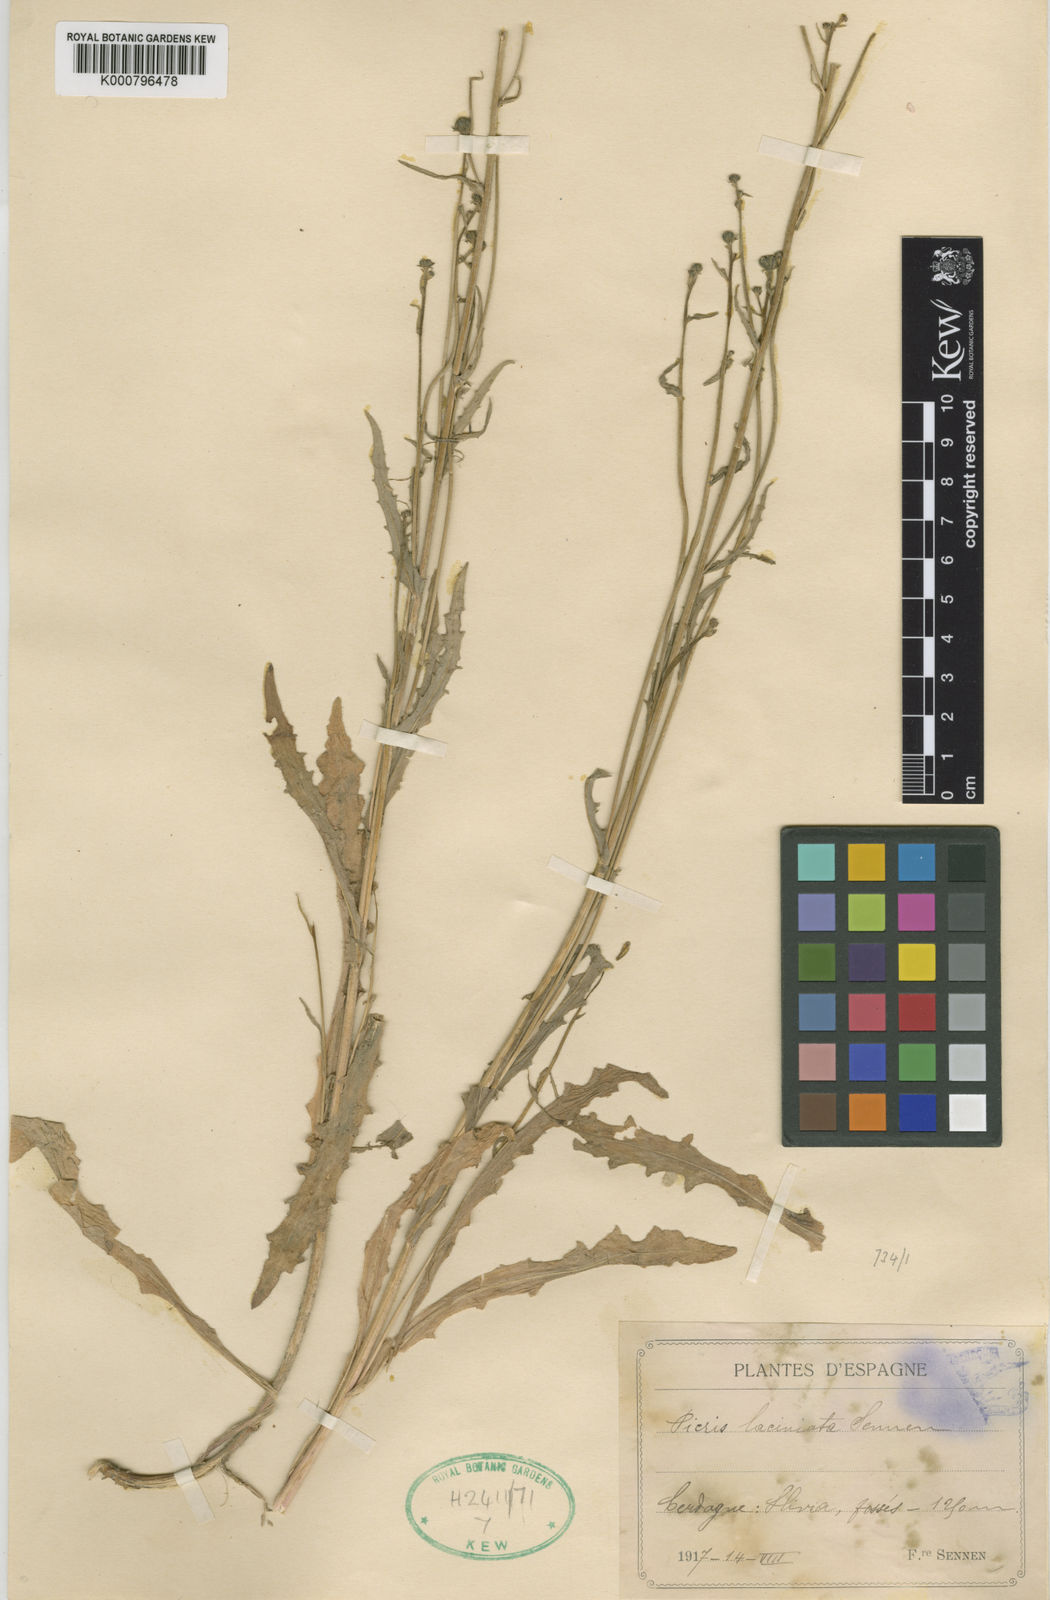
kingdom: Plantae
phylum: Tracheophyta
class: Magnoliopsida
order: Asterales
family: Asteraceae
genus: Picris
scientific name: Picris hieracioides
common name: Hawkweed oxtongue
